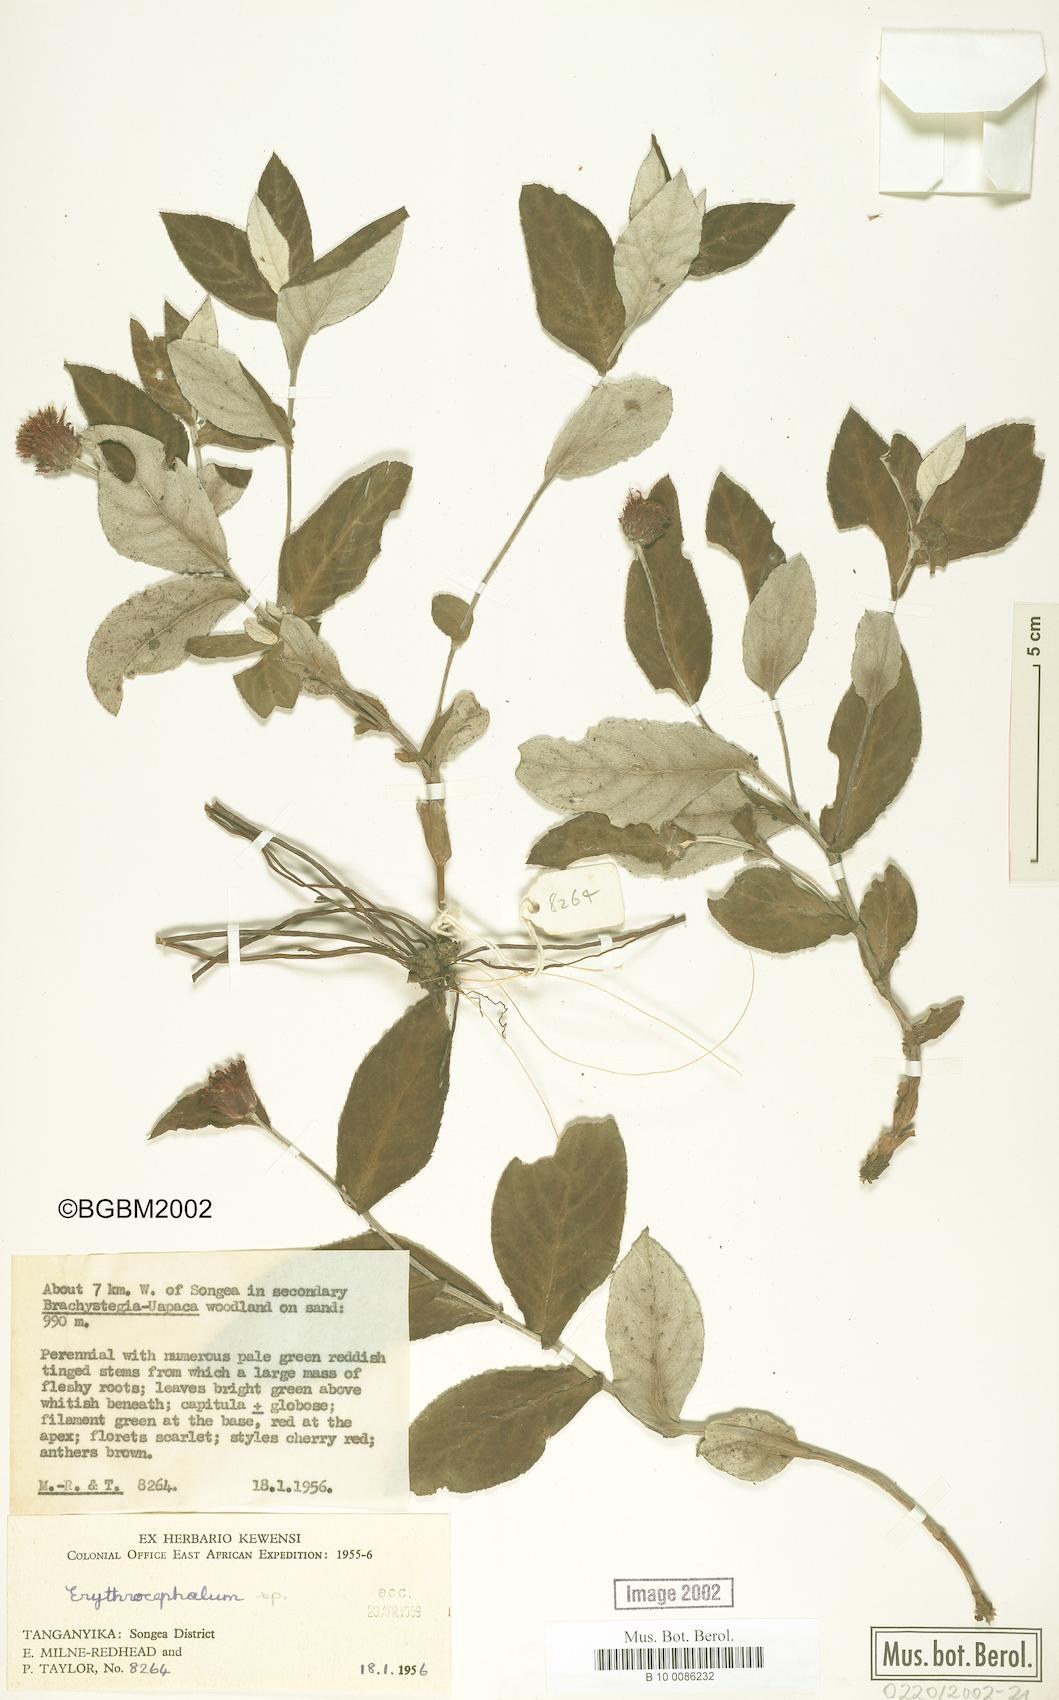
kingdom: Plantae
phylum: Tracheophyta
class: Magnoliopsida
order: Asterales
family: Asteraceae
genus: Erythrocephalum
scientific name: Erythrocephalum
